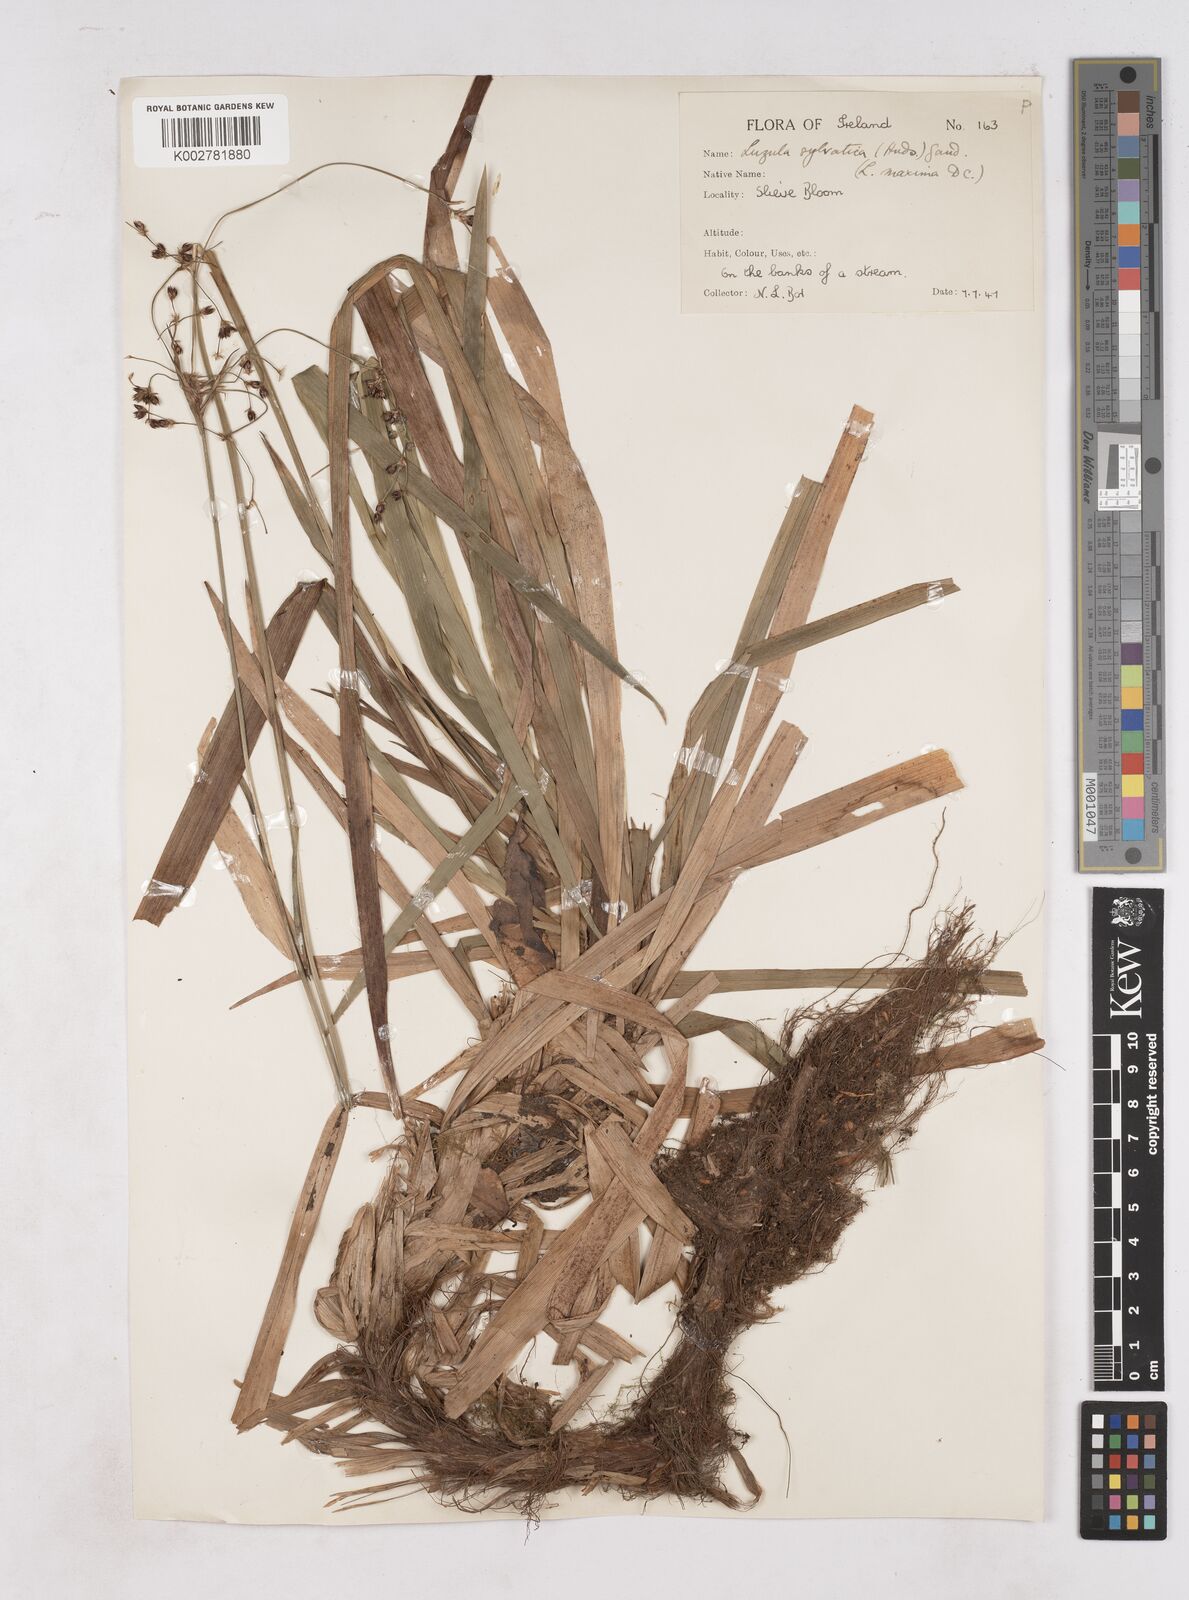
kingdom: Plantae
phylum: Tracheophyta
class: Liliopsida
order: Poales
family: Juncaceae
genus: Luzula
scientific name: Luzula sylvatica
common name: Great wood-rush
